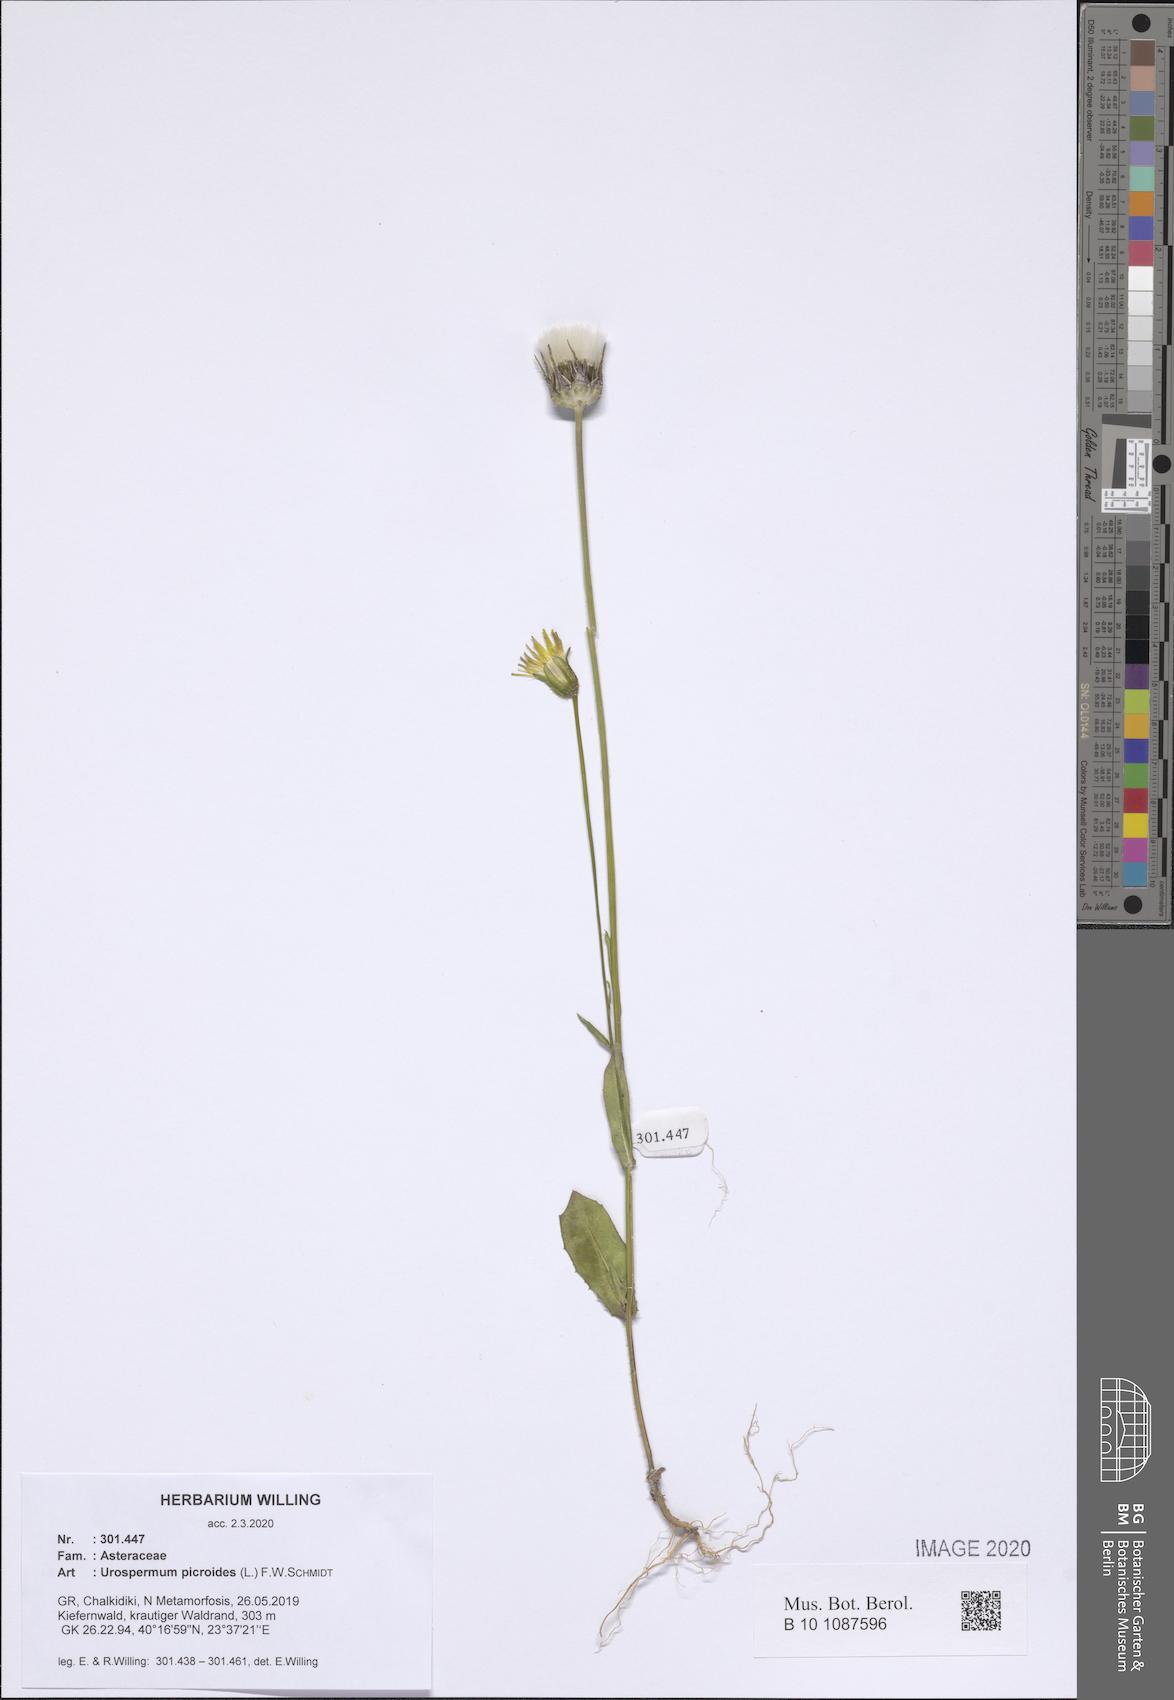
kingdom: Plantae
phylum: Tracheophyta
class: Magnoliopsida
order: Asterales
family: Asteraceae
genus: Urospermum
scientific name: Urospermum picroides
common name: False hawkbit
